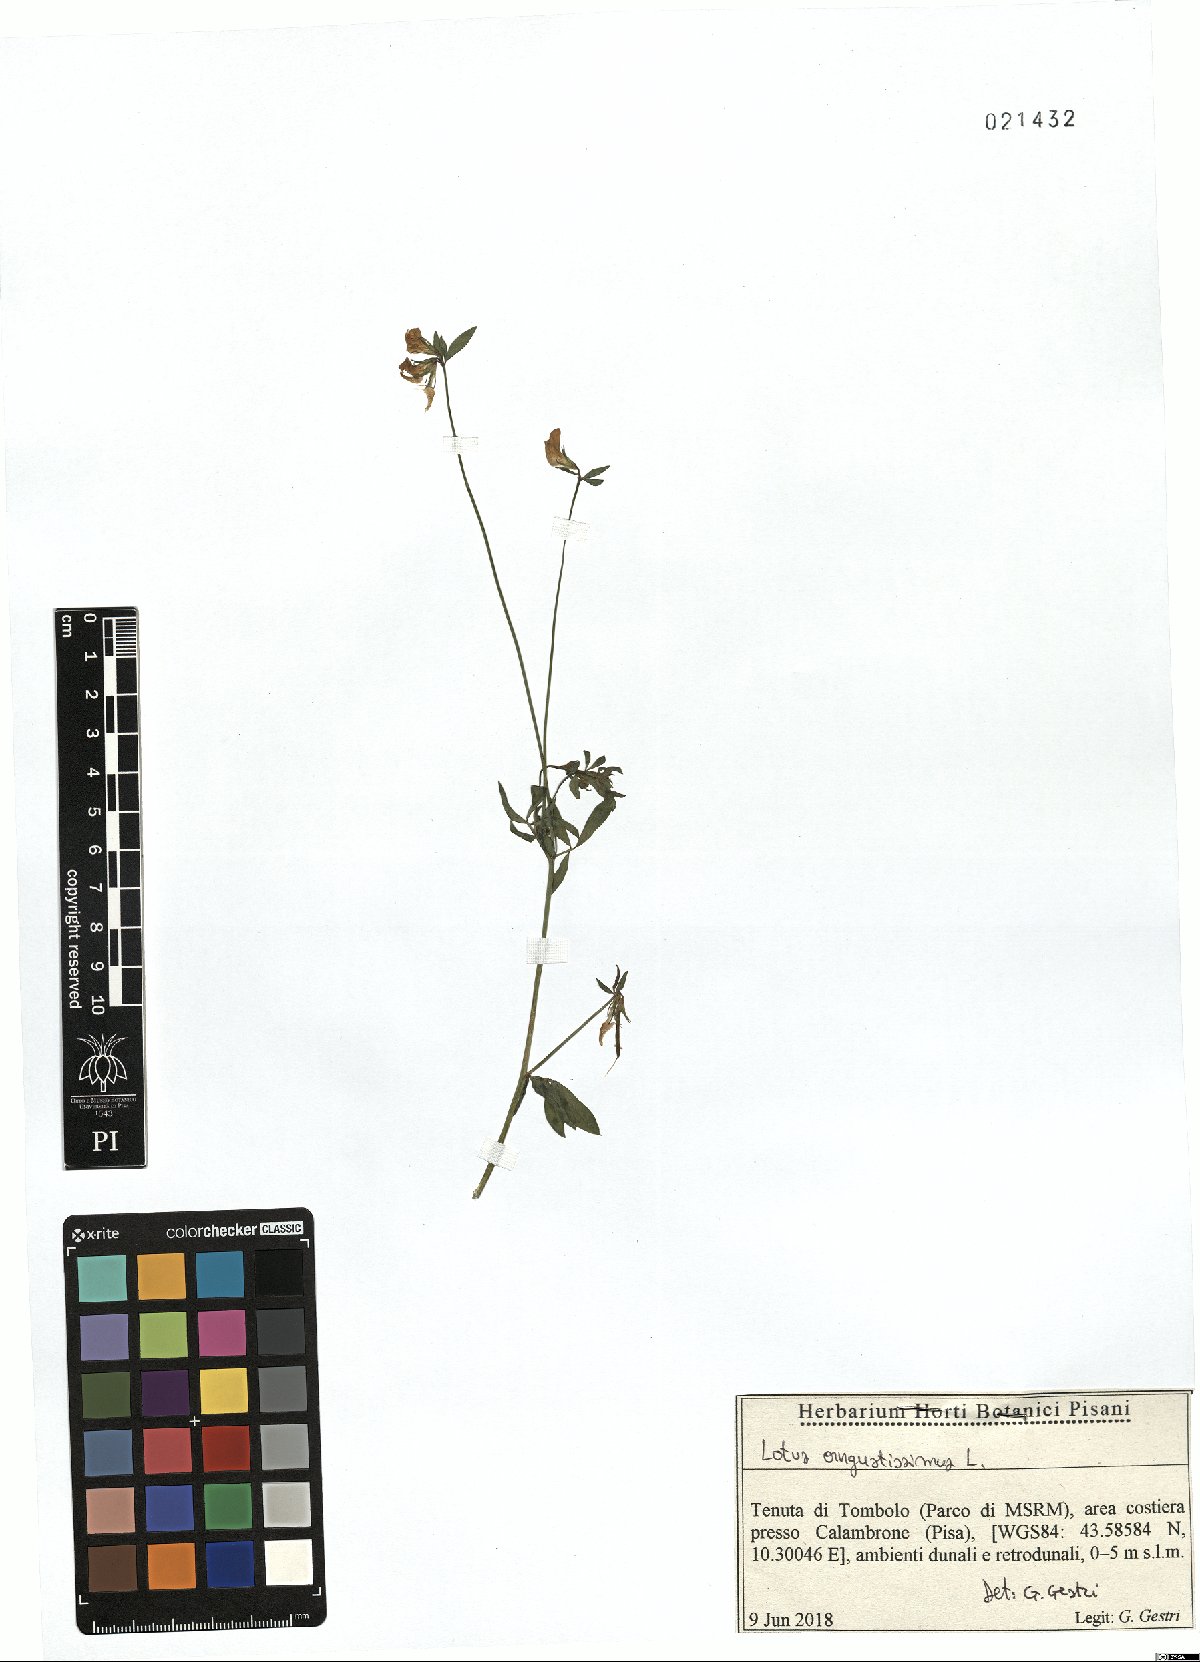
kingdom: Plantae
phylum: Tracheophyta
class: Magnoliopsida
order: Fabales
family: Fabaceae
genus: Lotus
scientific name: Lotus angustissimus
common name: Slender bird's-foot trefoil
